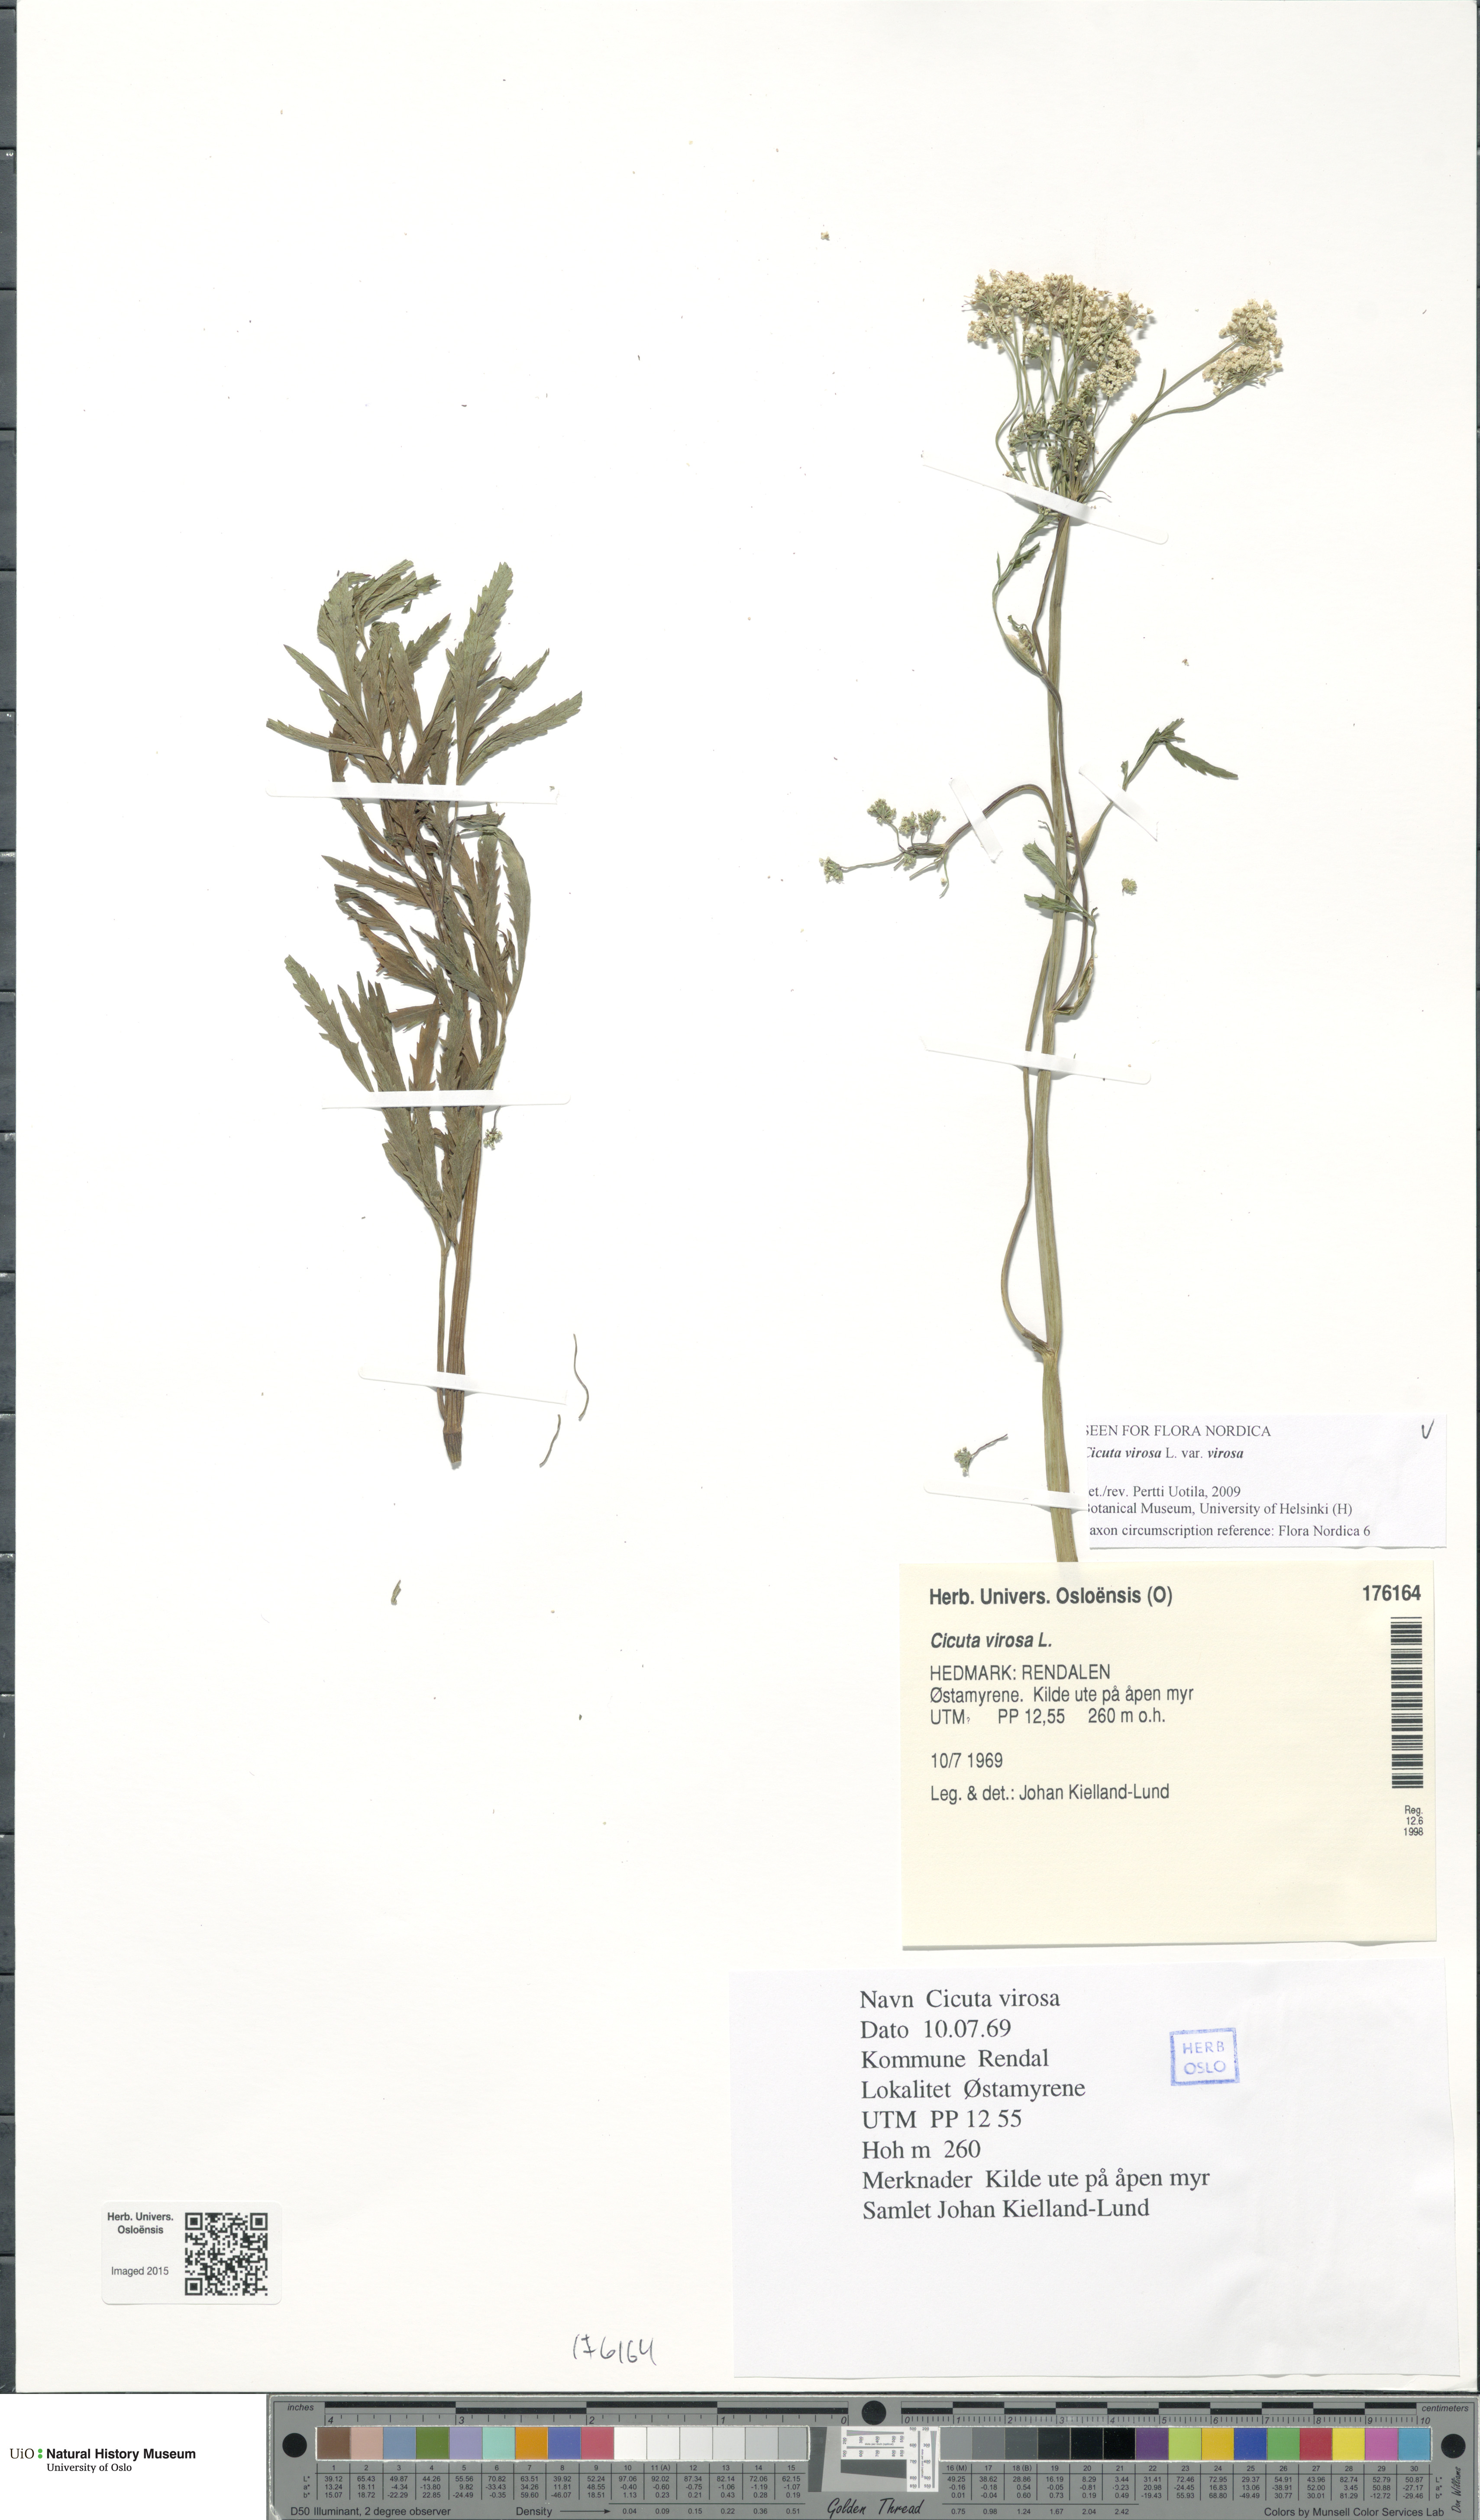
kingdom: Plantae
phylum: Tracheophyta
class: Magnoliopsida
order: Apiales
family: Apiaceae
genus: Cicuta
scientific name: Cicuta virosa
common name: Cowbane
